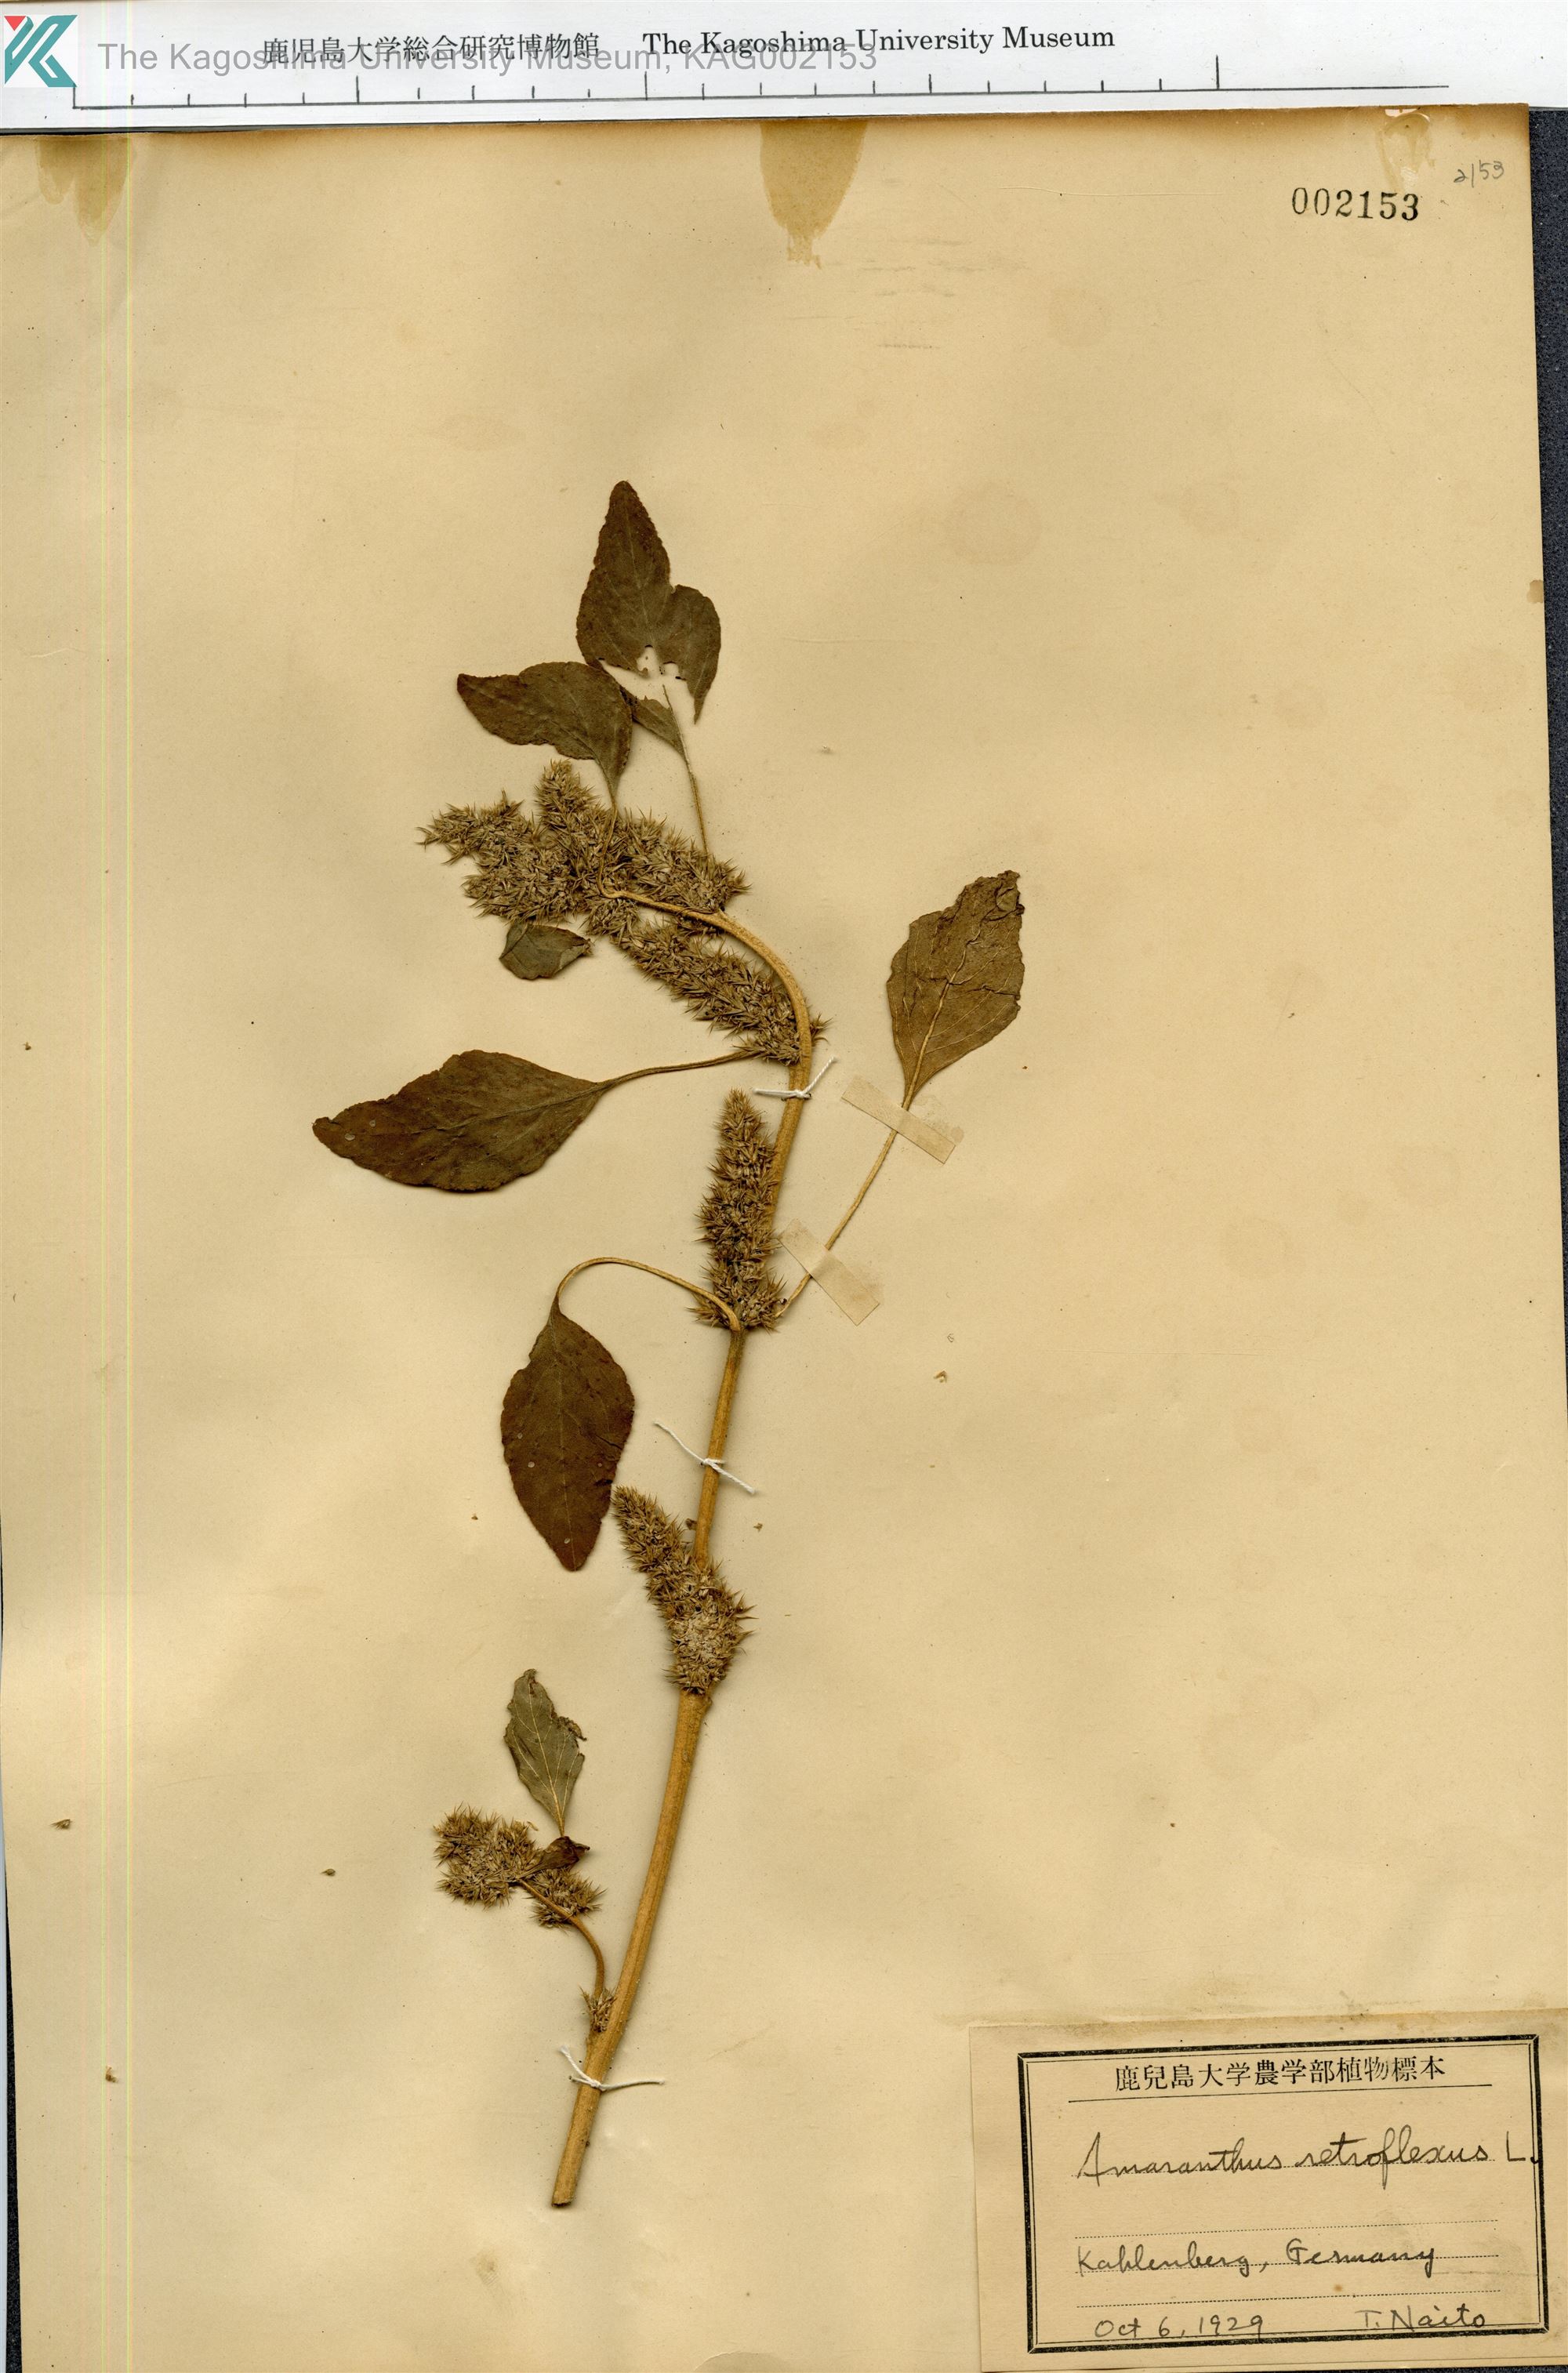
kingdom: Plantae
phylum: Tracheophyta
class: Magnoliopsida
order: Caryophyllales
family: Amaranthaceae
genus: Amaranthus
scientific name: Amaranthus retroflexus
